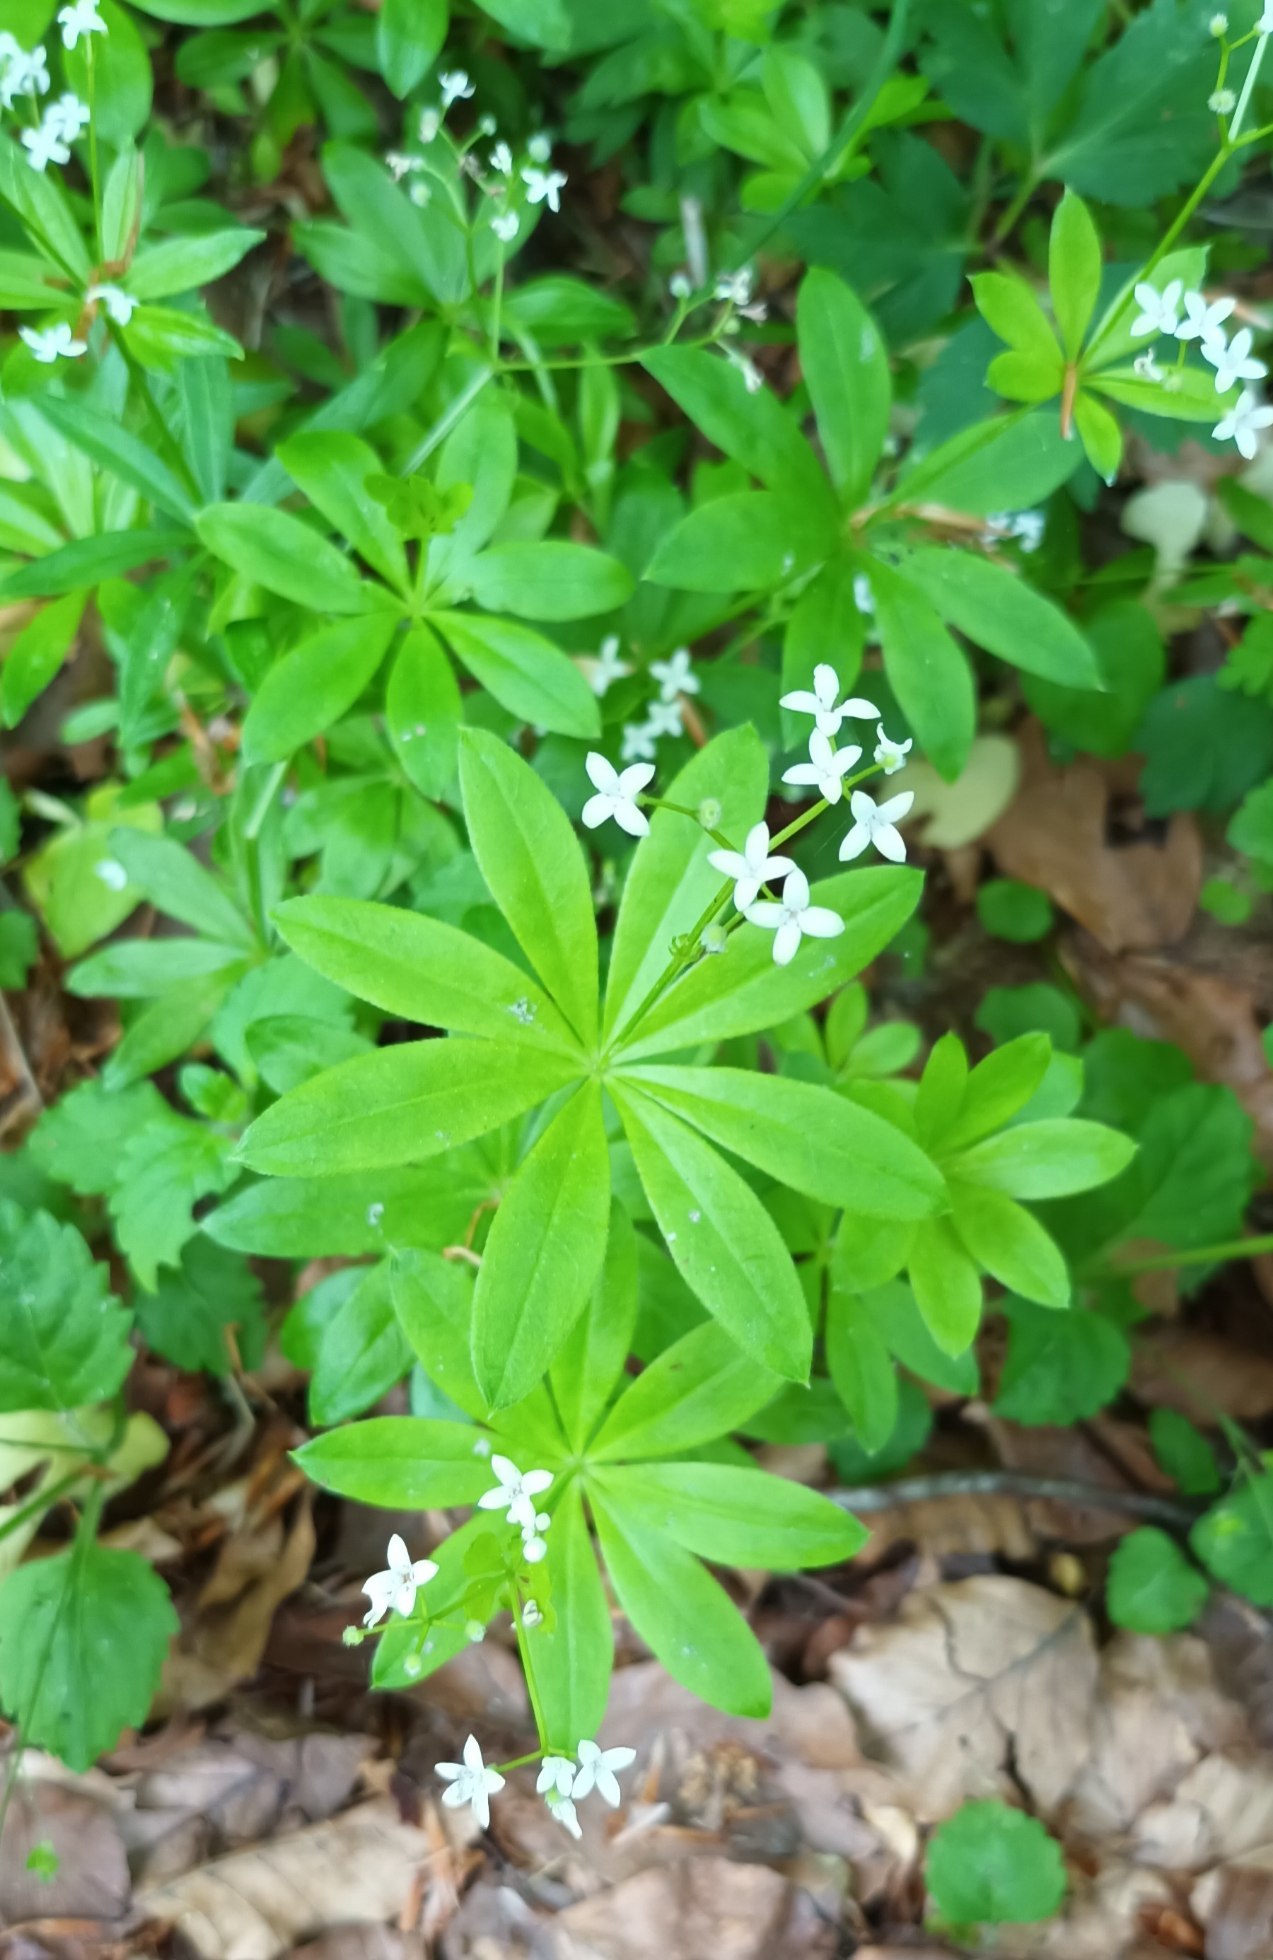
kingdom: Plantae
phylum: Tracheophyta
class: Magnoliopsida
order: Gentianales
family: Rubiaceae
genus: Galium
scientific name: Galium odoratum
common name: Skovmærke
